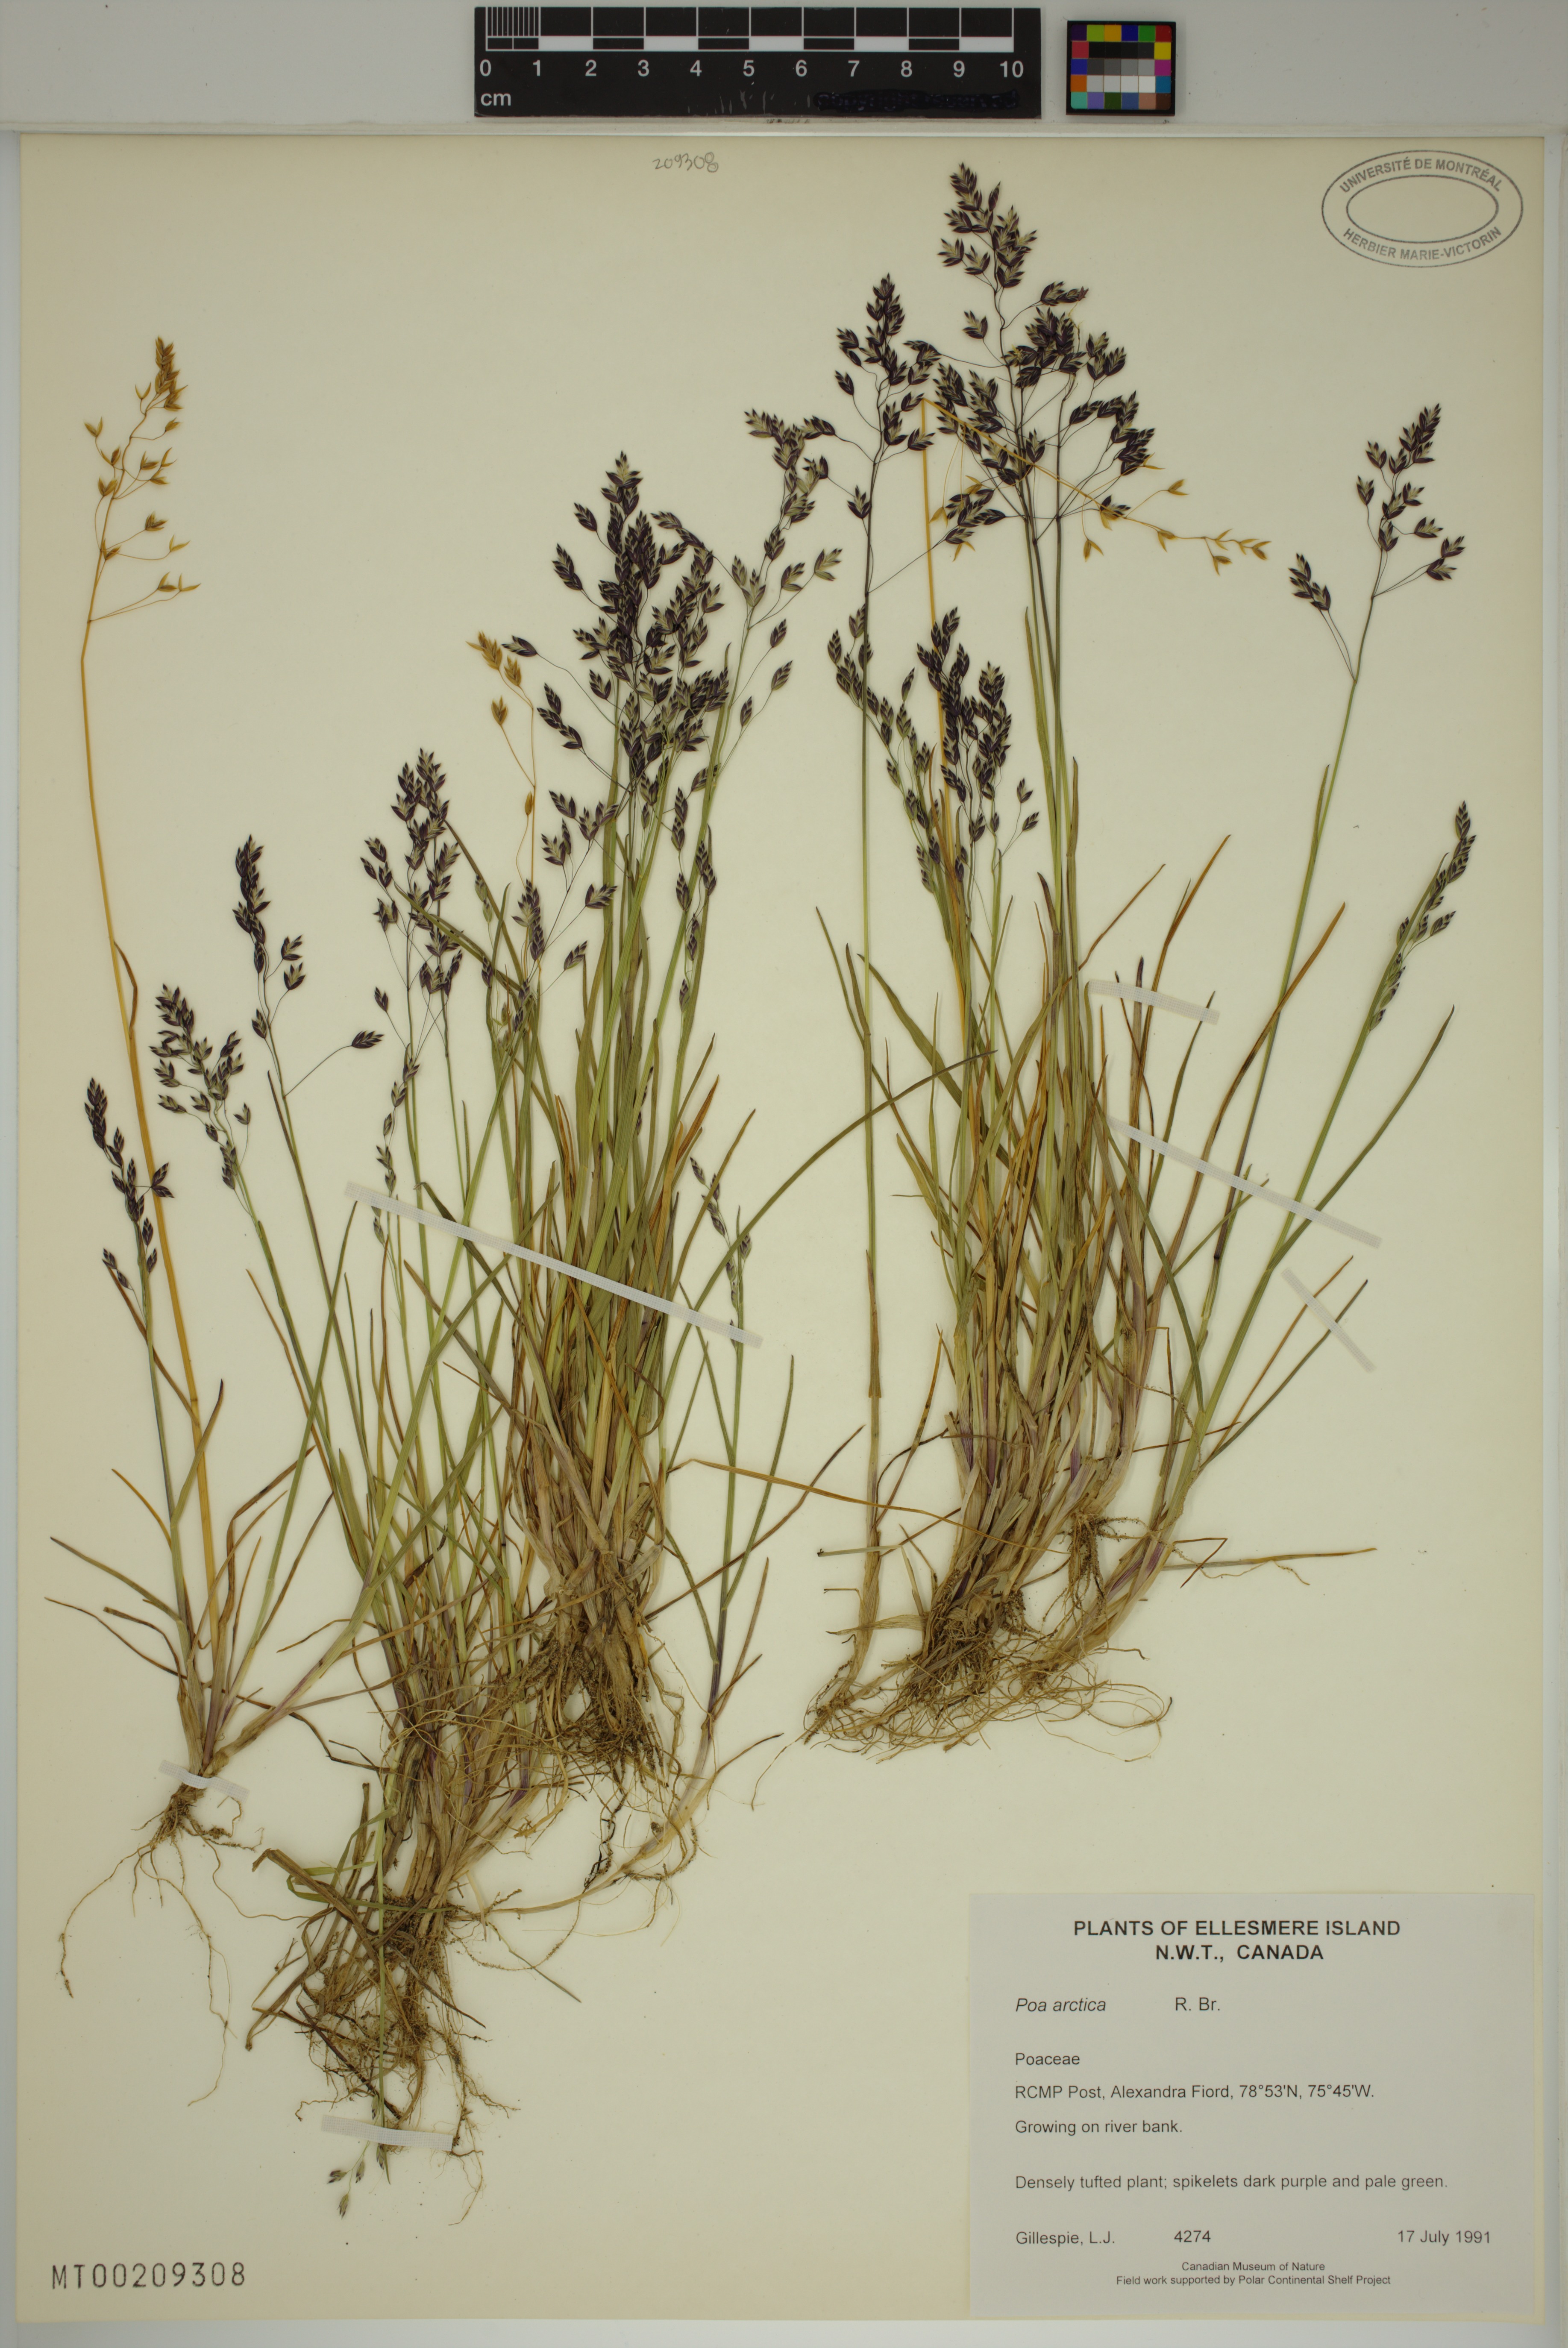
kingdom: Plantae
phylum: Tracheophyta
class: Liliopsida
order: Poales
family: Poaceae
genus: Poa
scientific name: Poa arctica
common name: Arctic bluegrass
